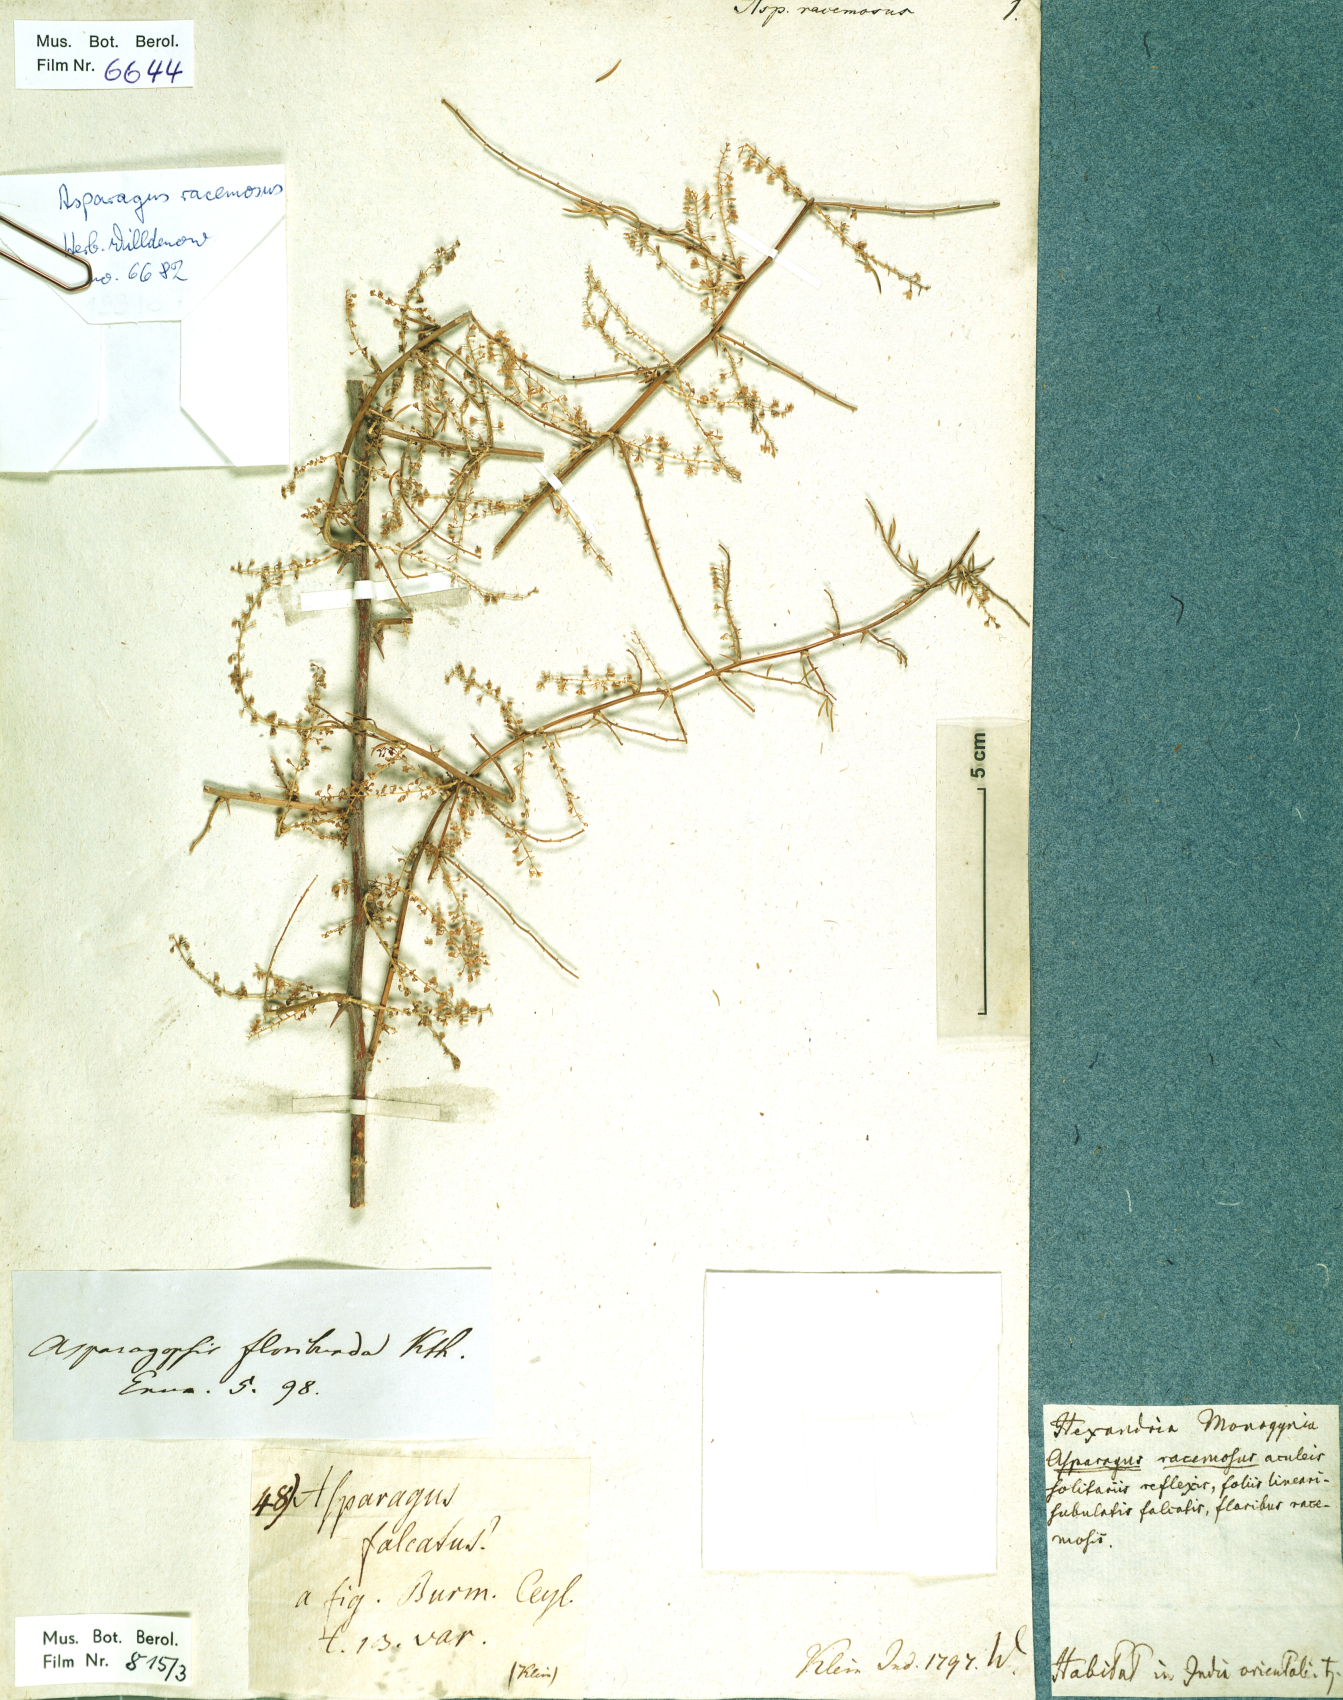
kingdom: Plantae
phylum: Tracheophyta
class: Liliopsida
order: Asparagales
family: Asparagaceae
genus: Asparagus
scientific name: Asparagus racemosus
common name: Asparagus-fern
